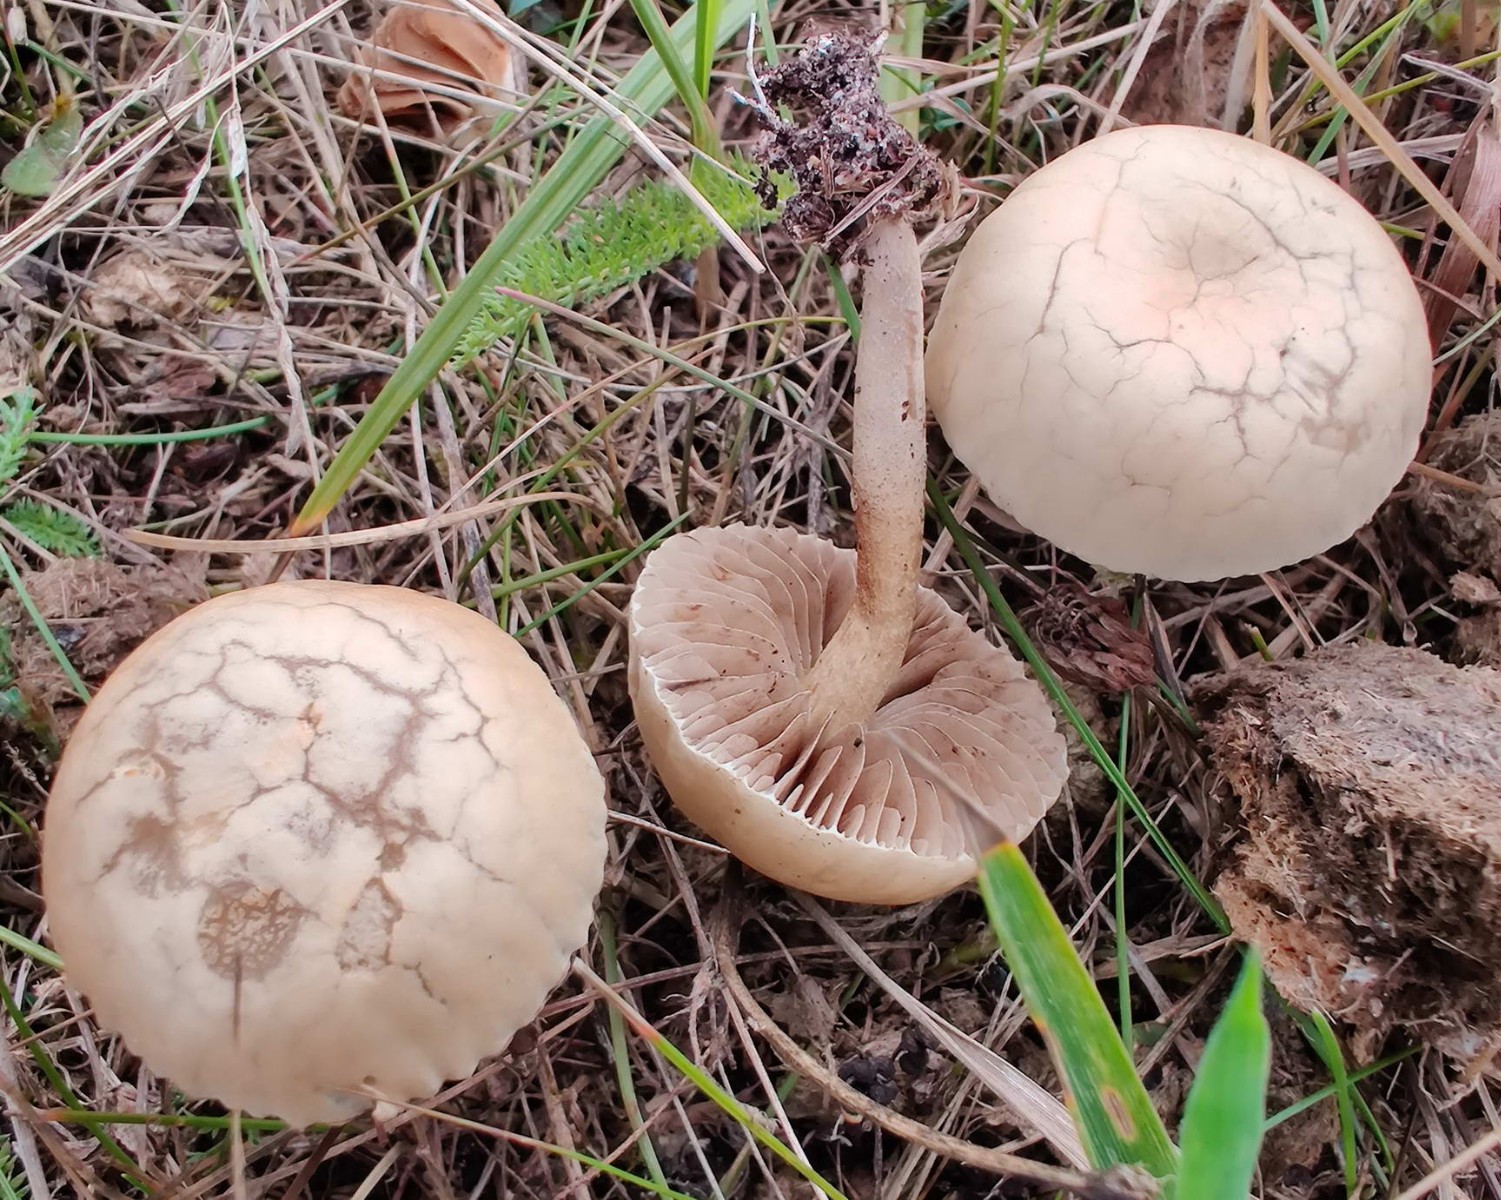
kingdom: Fungi
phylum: Basidiomycota
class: Agaricomycetes
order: Agaricales
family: Strophariaceae
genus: Agrocybe
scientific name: Agrocybe
